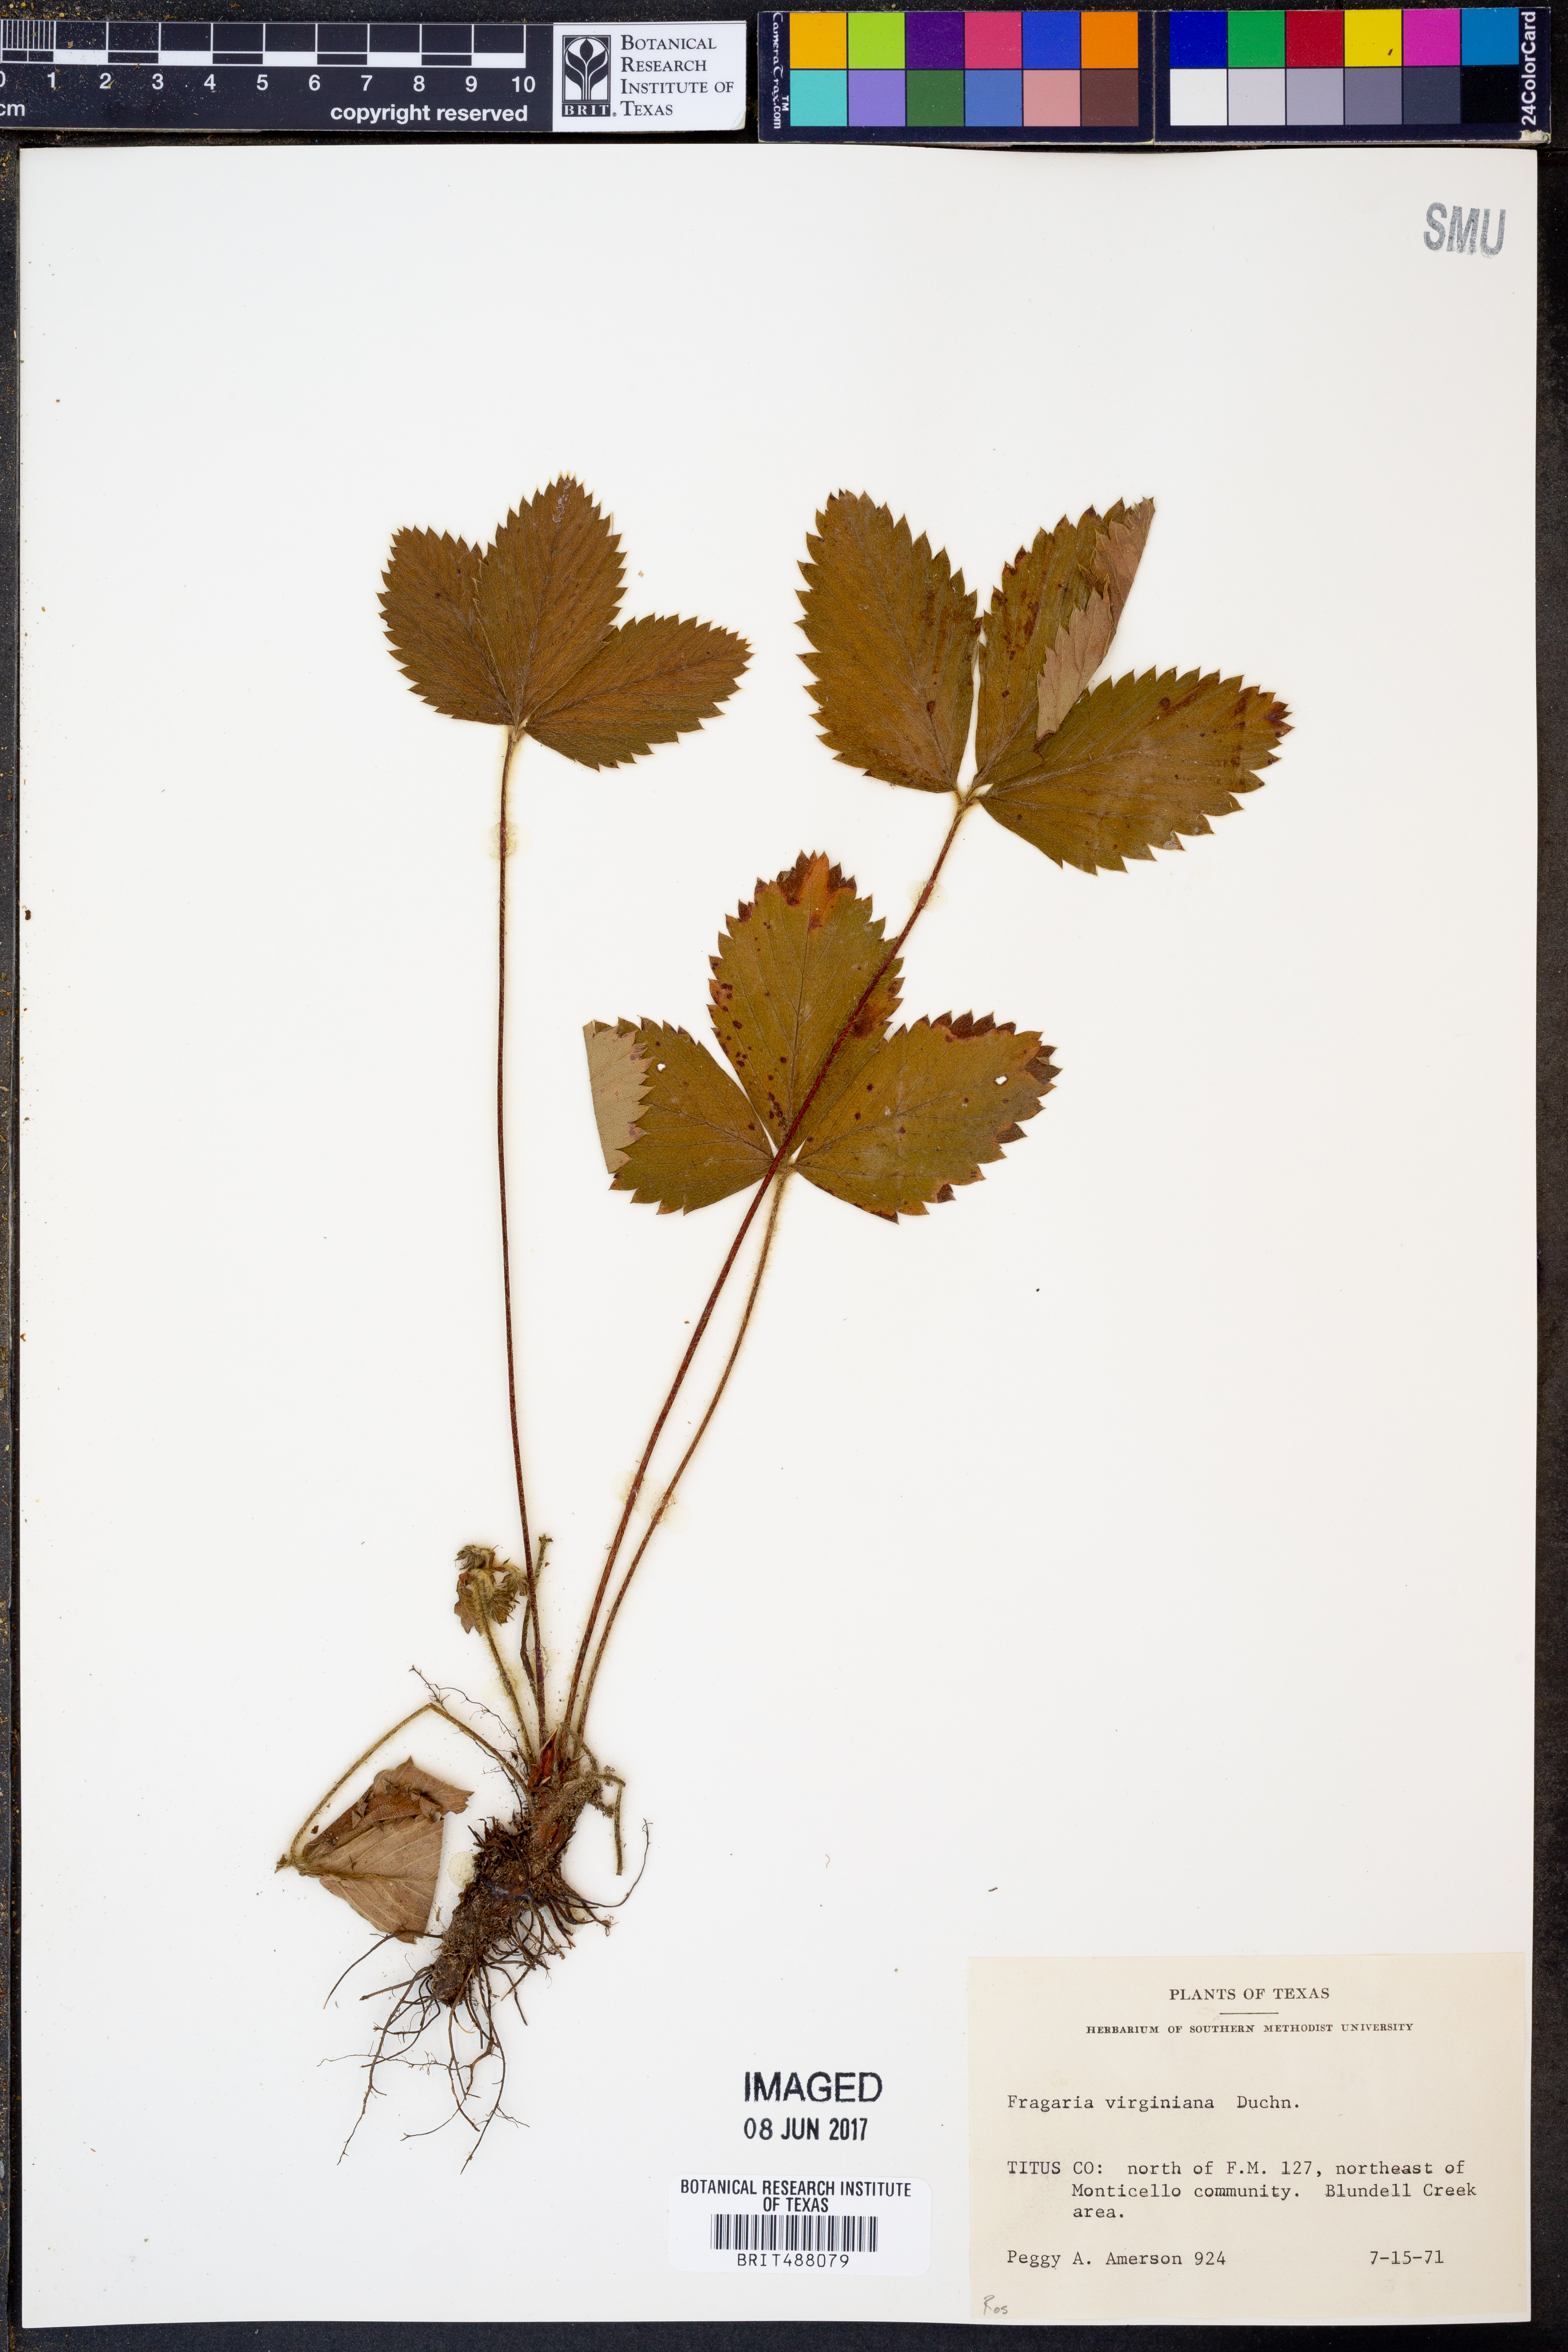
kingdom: Plantae
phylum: Tracheophyta
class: Magnoliopsida
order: Rosales
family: Rosaceae
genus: Fragaria
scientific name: Fragaria virginiana
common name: Thickleaved wild strawberry
